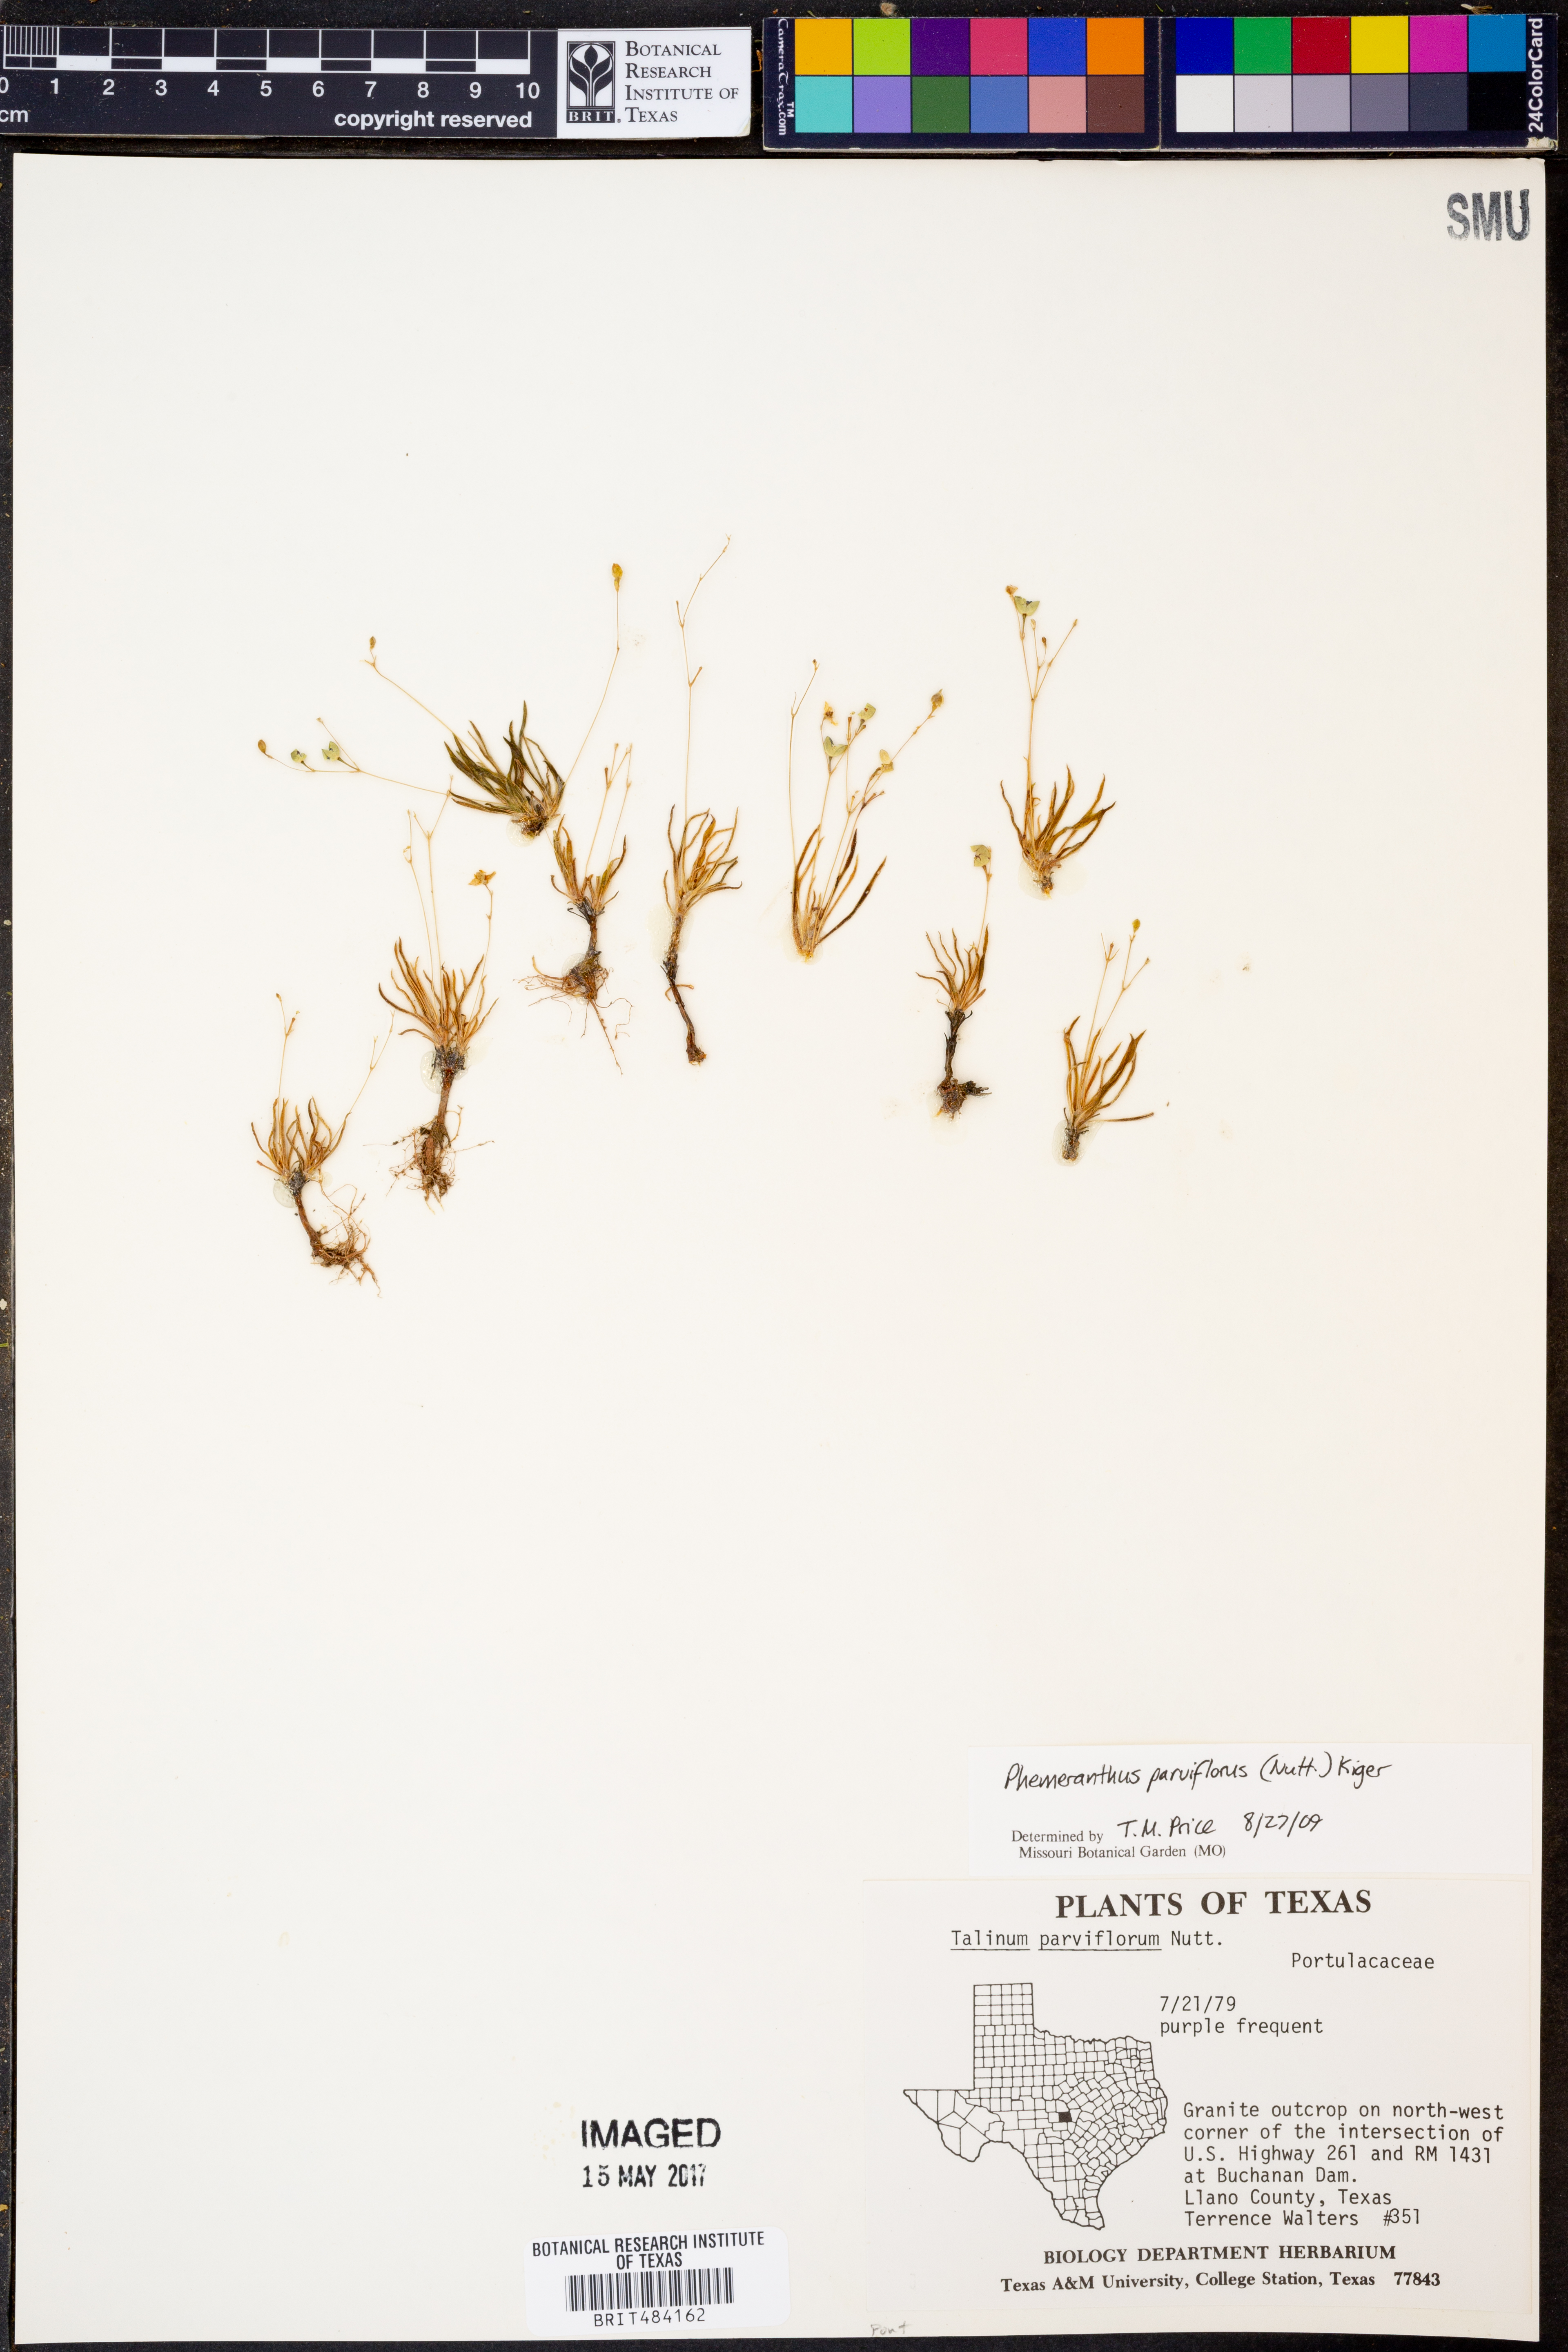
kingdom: Plantae
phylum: Tracheophyta
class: Magnoliopsida
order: Caryophyllales
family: Montiaceae
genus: Phemeranthus
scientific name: Phemeranthus parviflorus
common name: Sunbright
